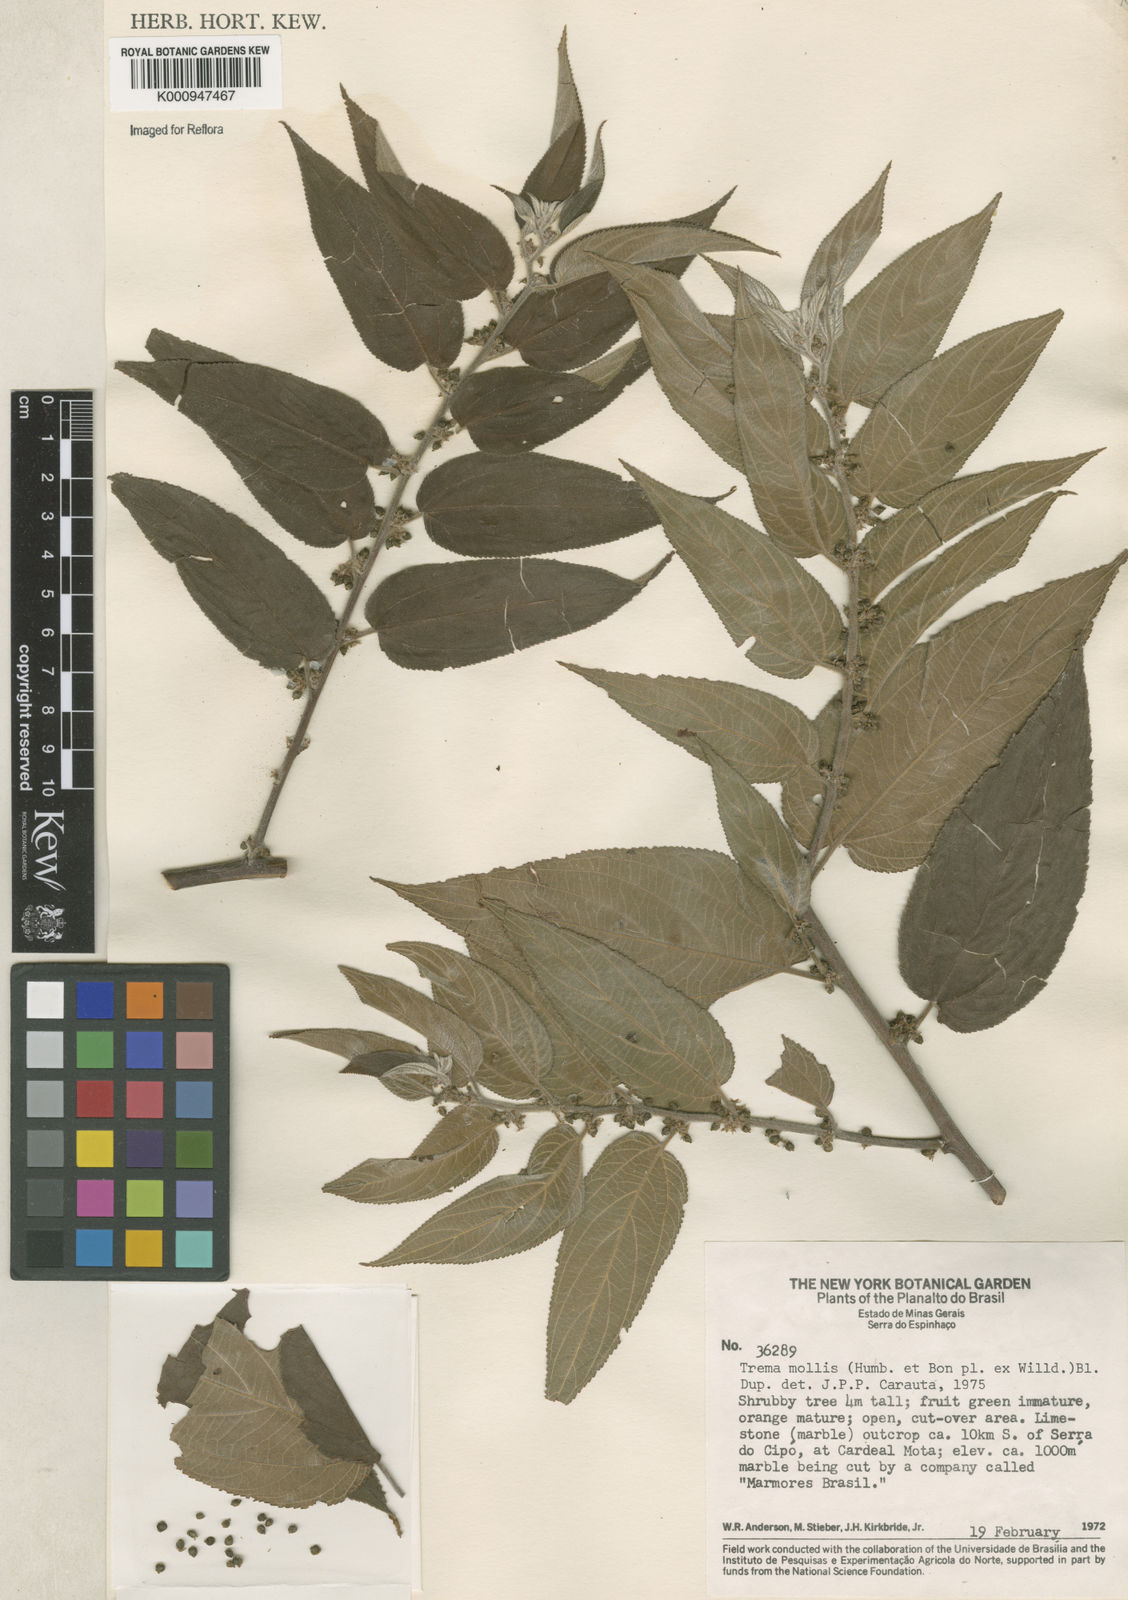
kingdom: Plantae
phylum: Tracheophyta
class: Magnoliopsida
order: Rosales
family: Cannabaceae
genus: Trema
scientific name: Trema
